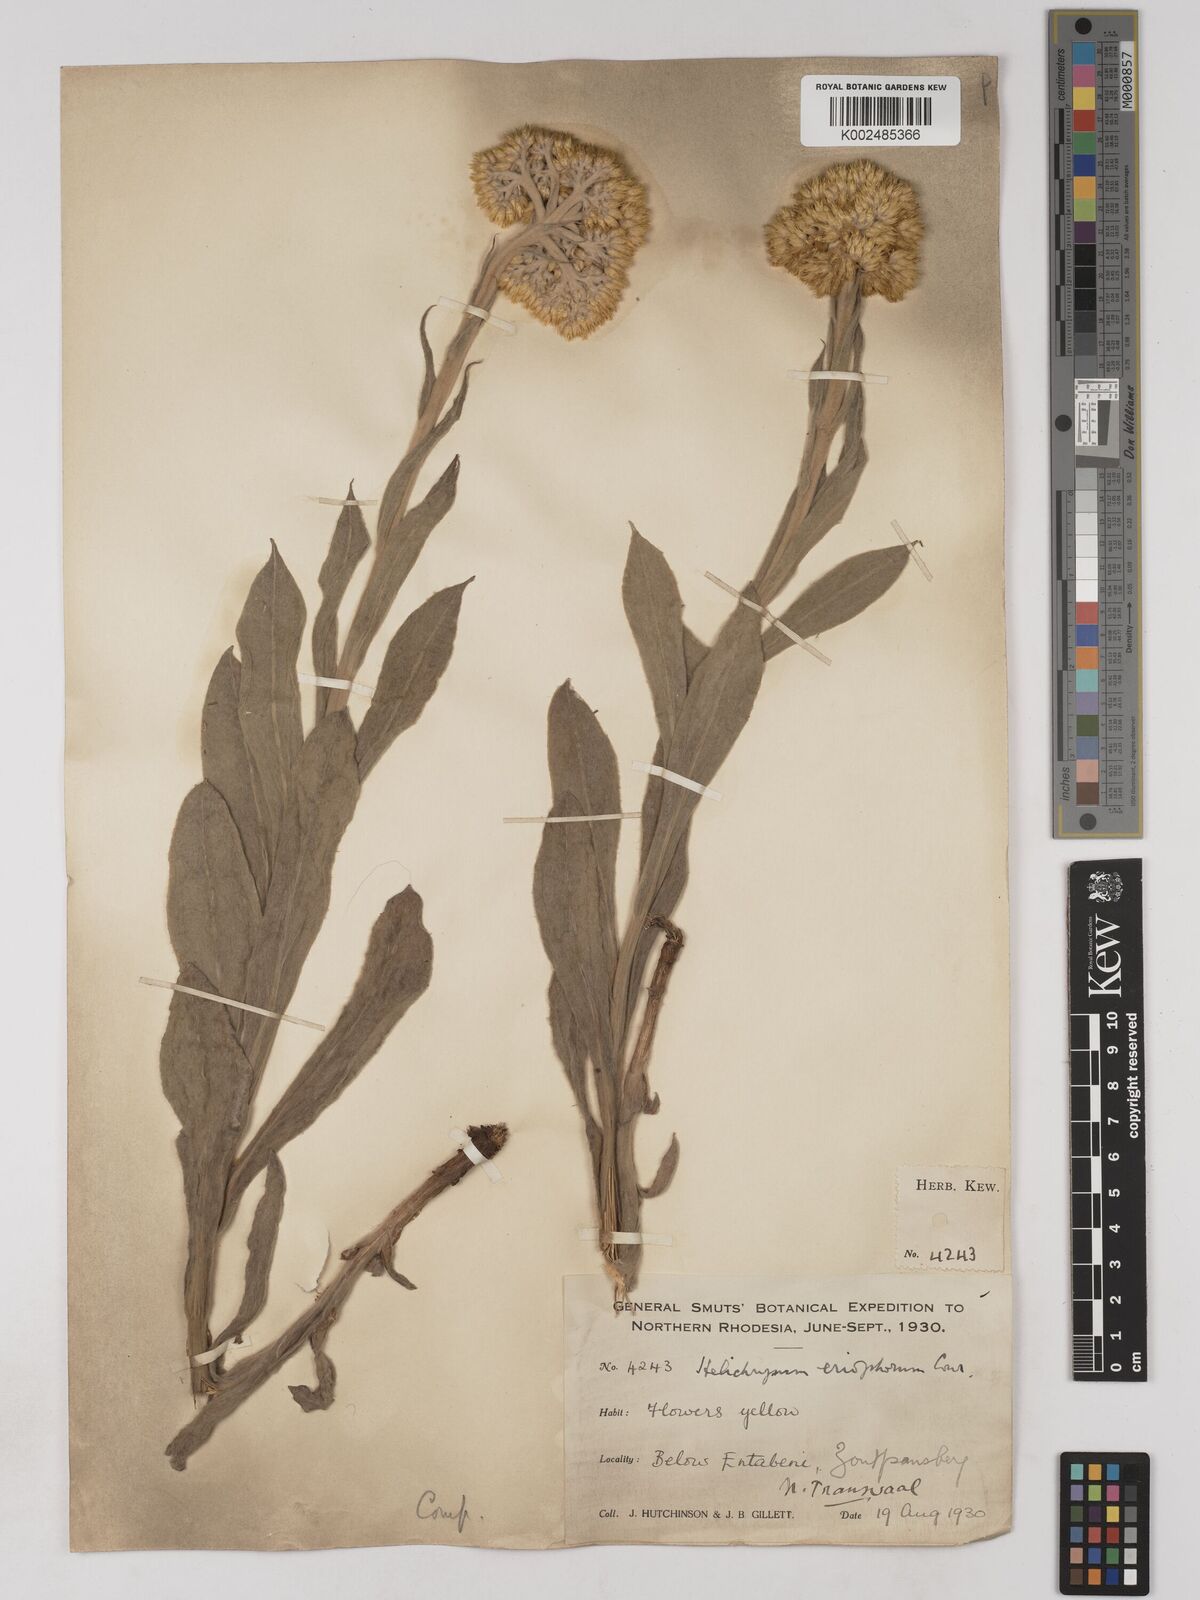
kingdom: Plantae
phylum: Tracheophyta
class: Magnoliopsida
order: Asterales
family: Asteraceae
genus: Helichrysum
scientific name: Helichrysum acutatum
